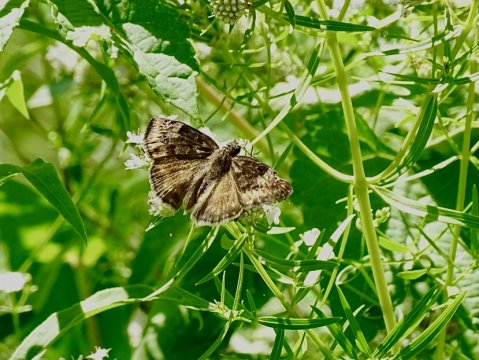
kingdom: Animalia
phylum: Arthropoda
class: Insecta
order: Lepidoptera
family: Hesperiidae
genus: Gesta
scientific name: Gesta
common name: Wild Indigo Duskywing
